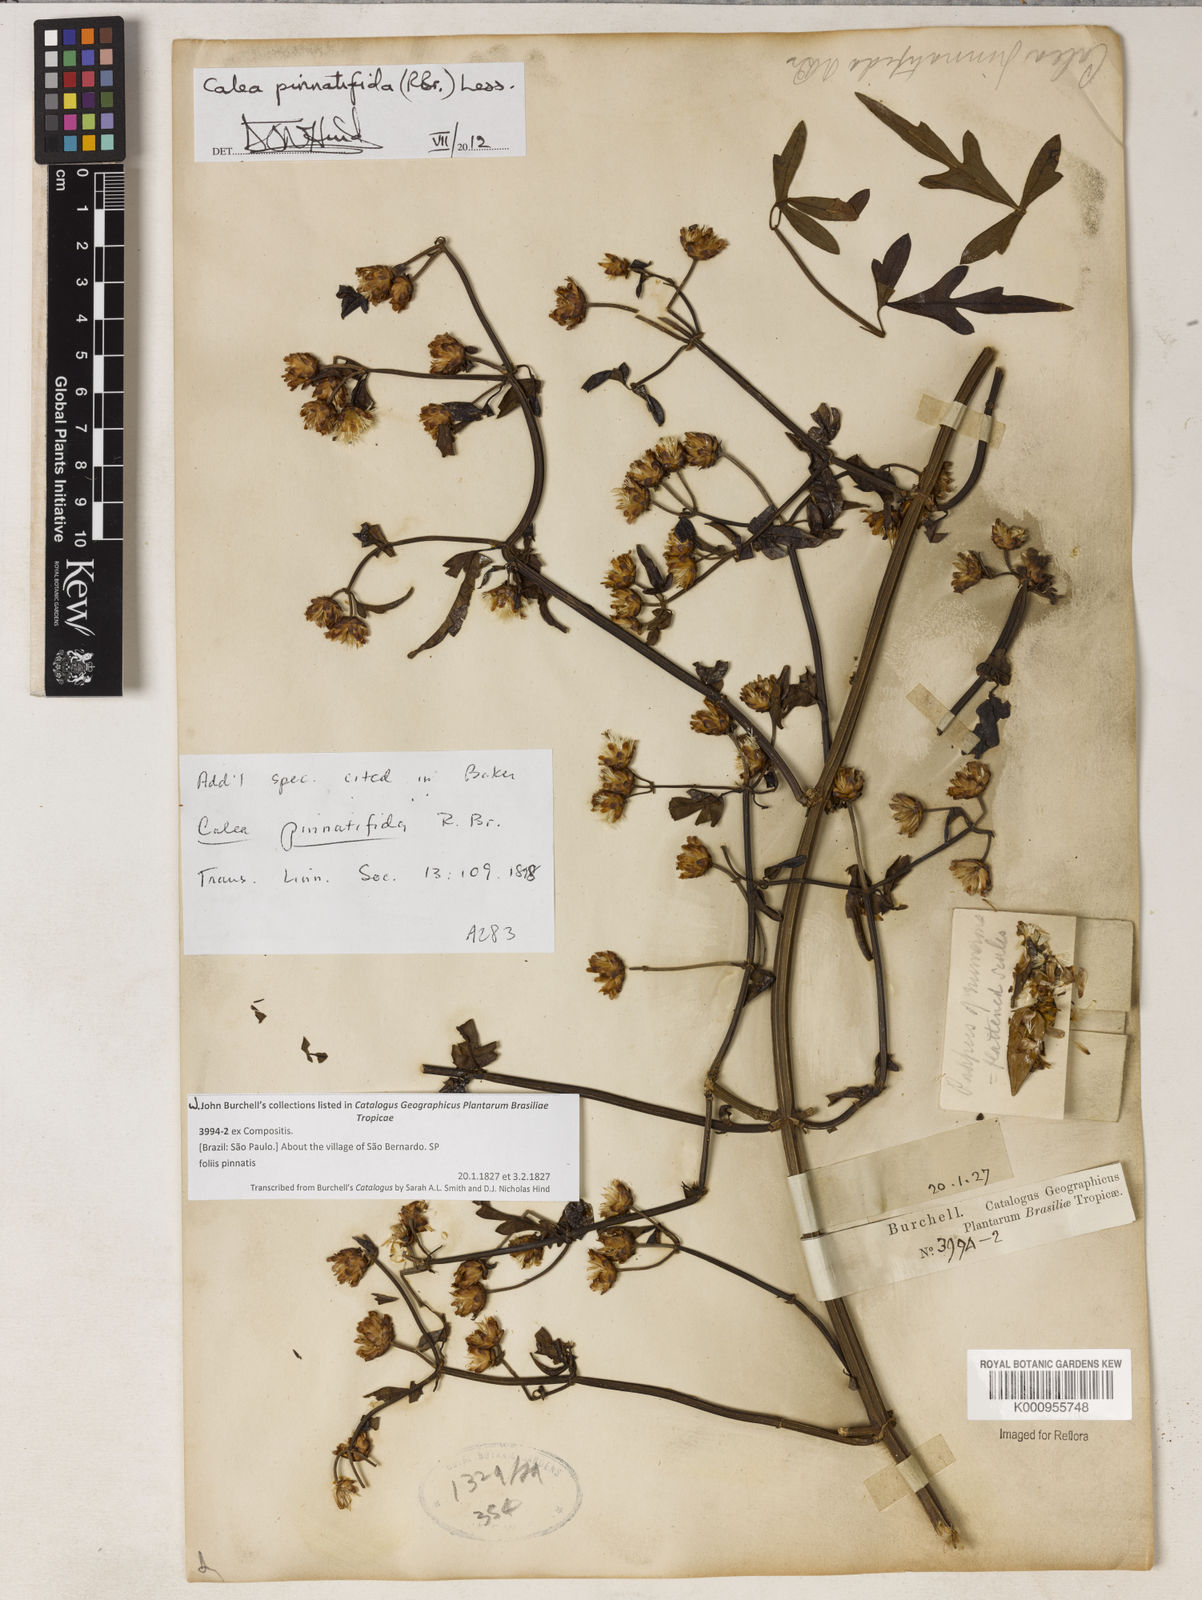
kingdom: Plantae
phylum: Tracheophyta
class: Magnoliopsida
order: Asterales
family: Asteraceae
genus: Calea
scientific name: Calea pinnatifida
